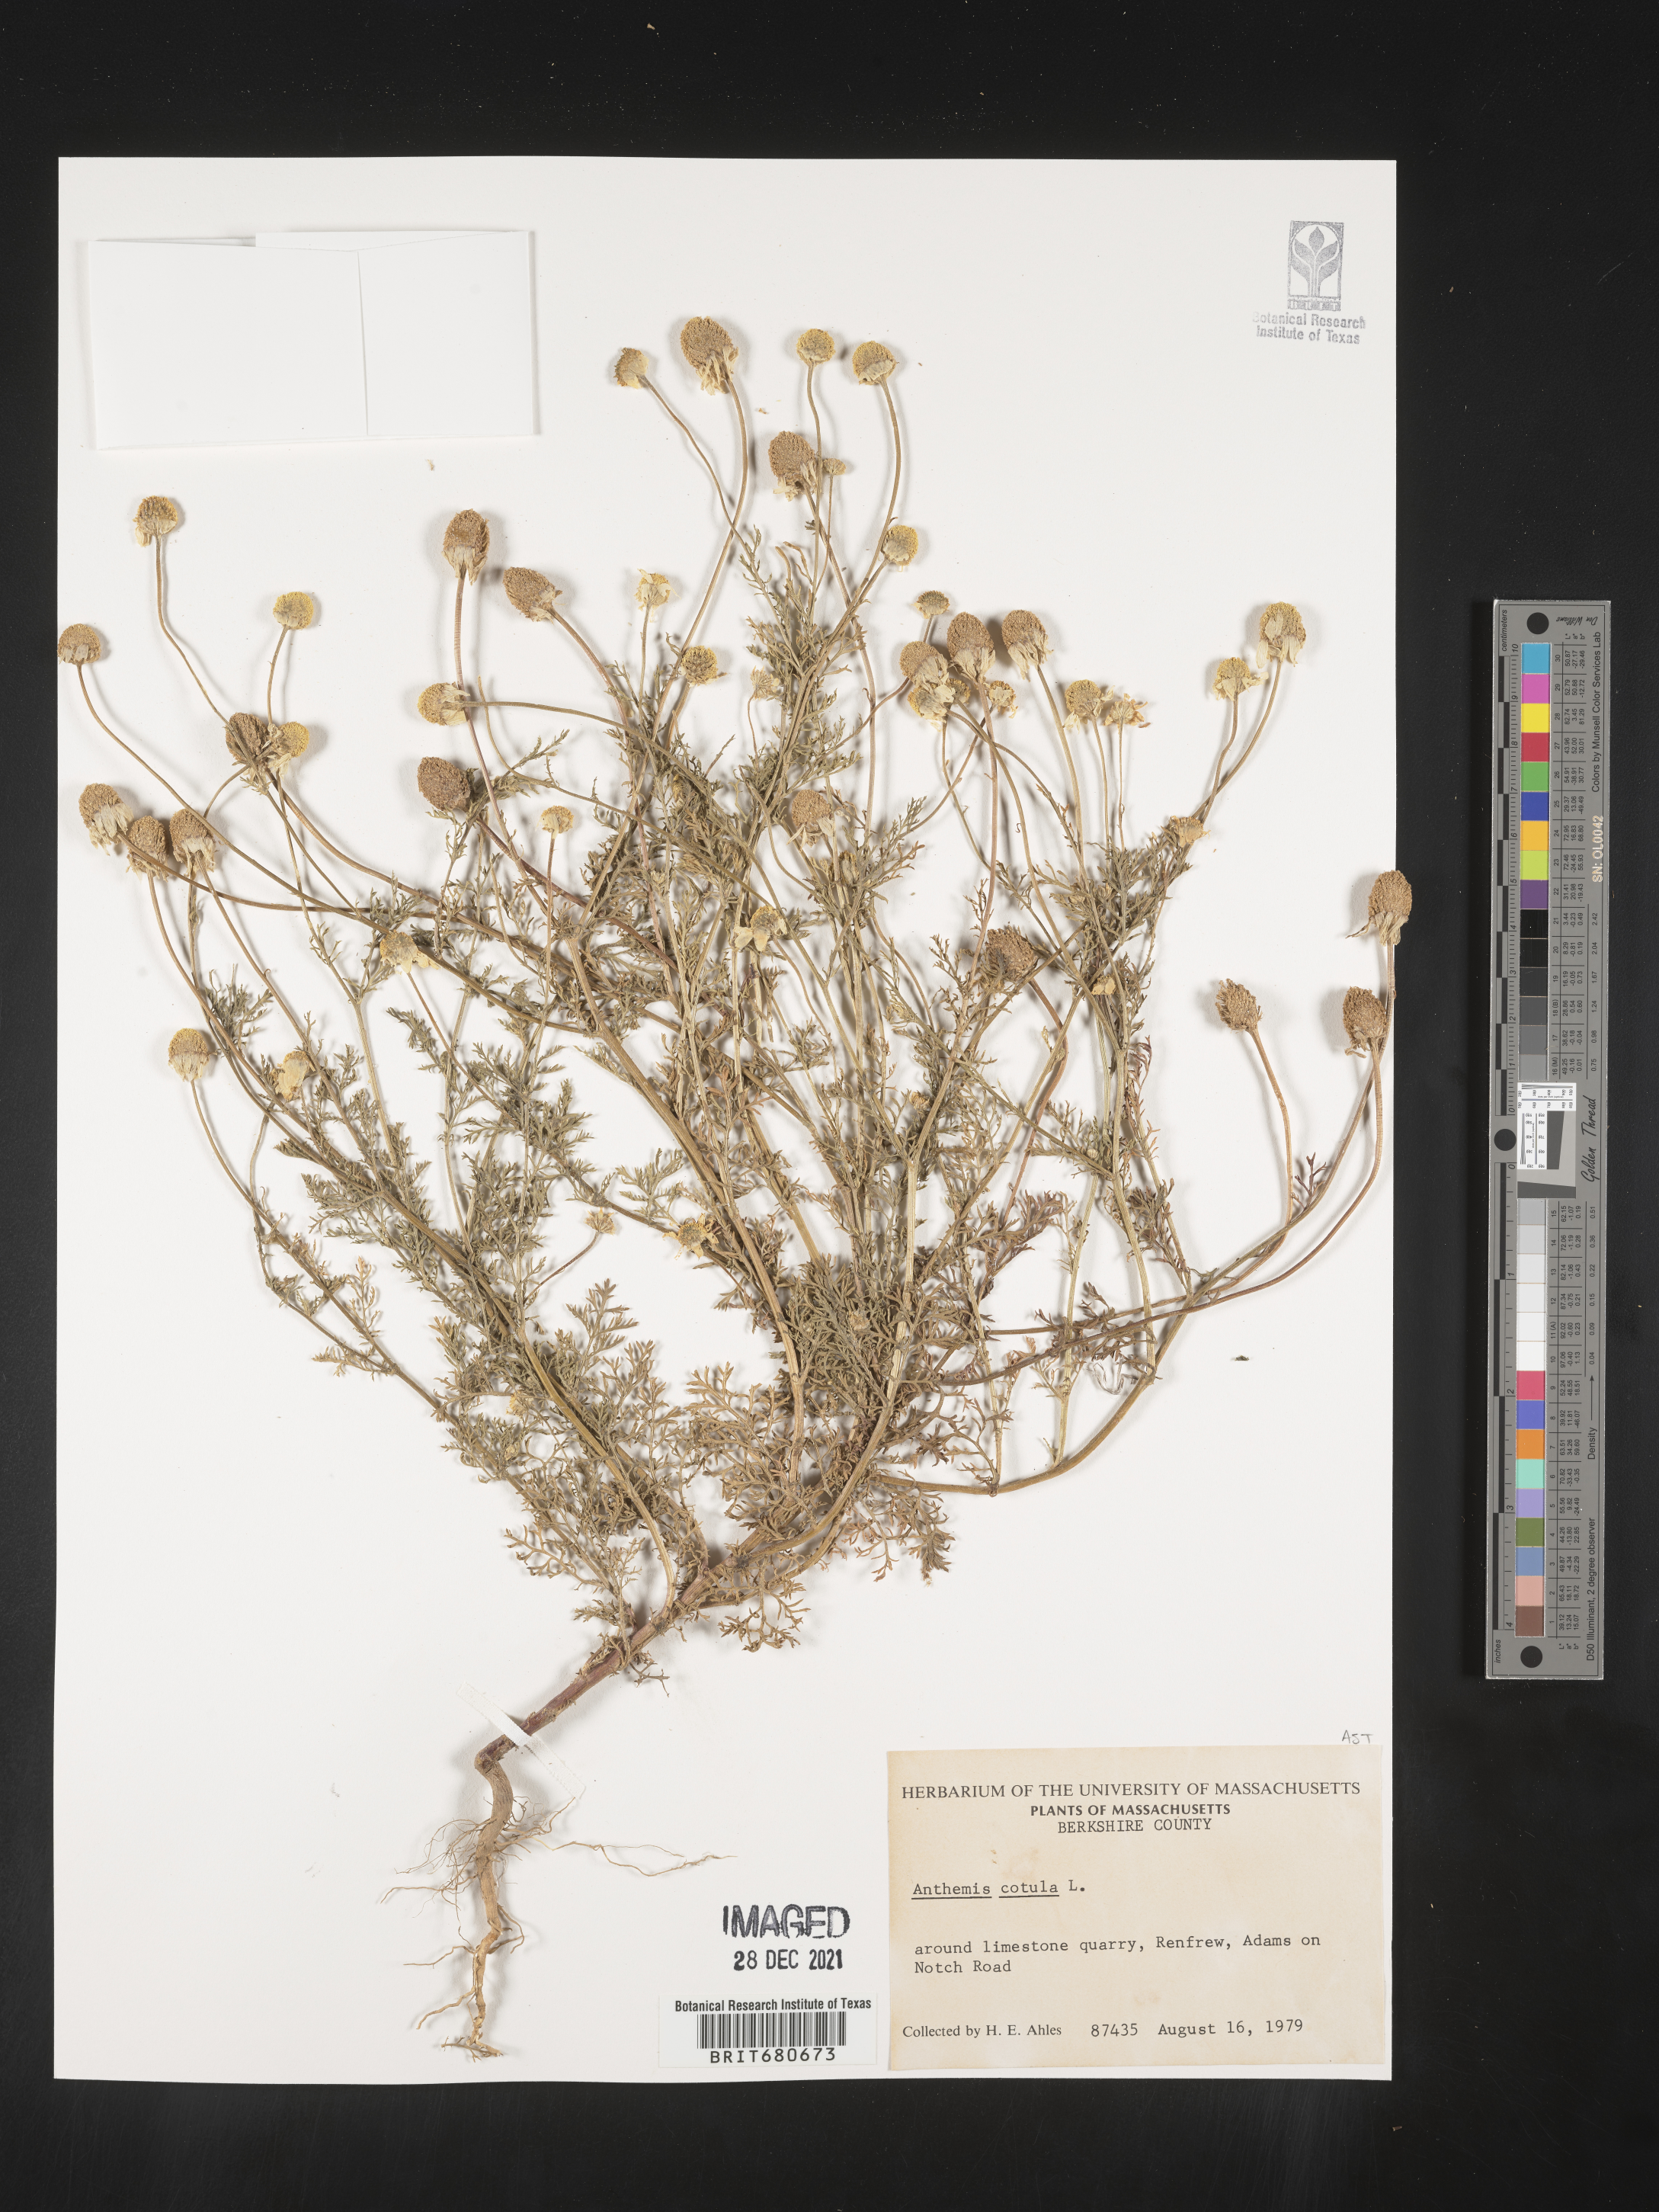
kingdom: Plantae
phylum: Tracheophyta
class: Magnoliopsida
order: Asterales
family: Asteraceae
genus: Anthemis
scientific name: Anthemis cotula
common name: Stinking chamomile
